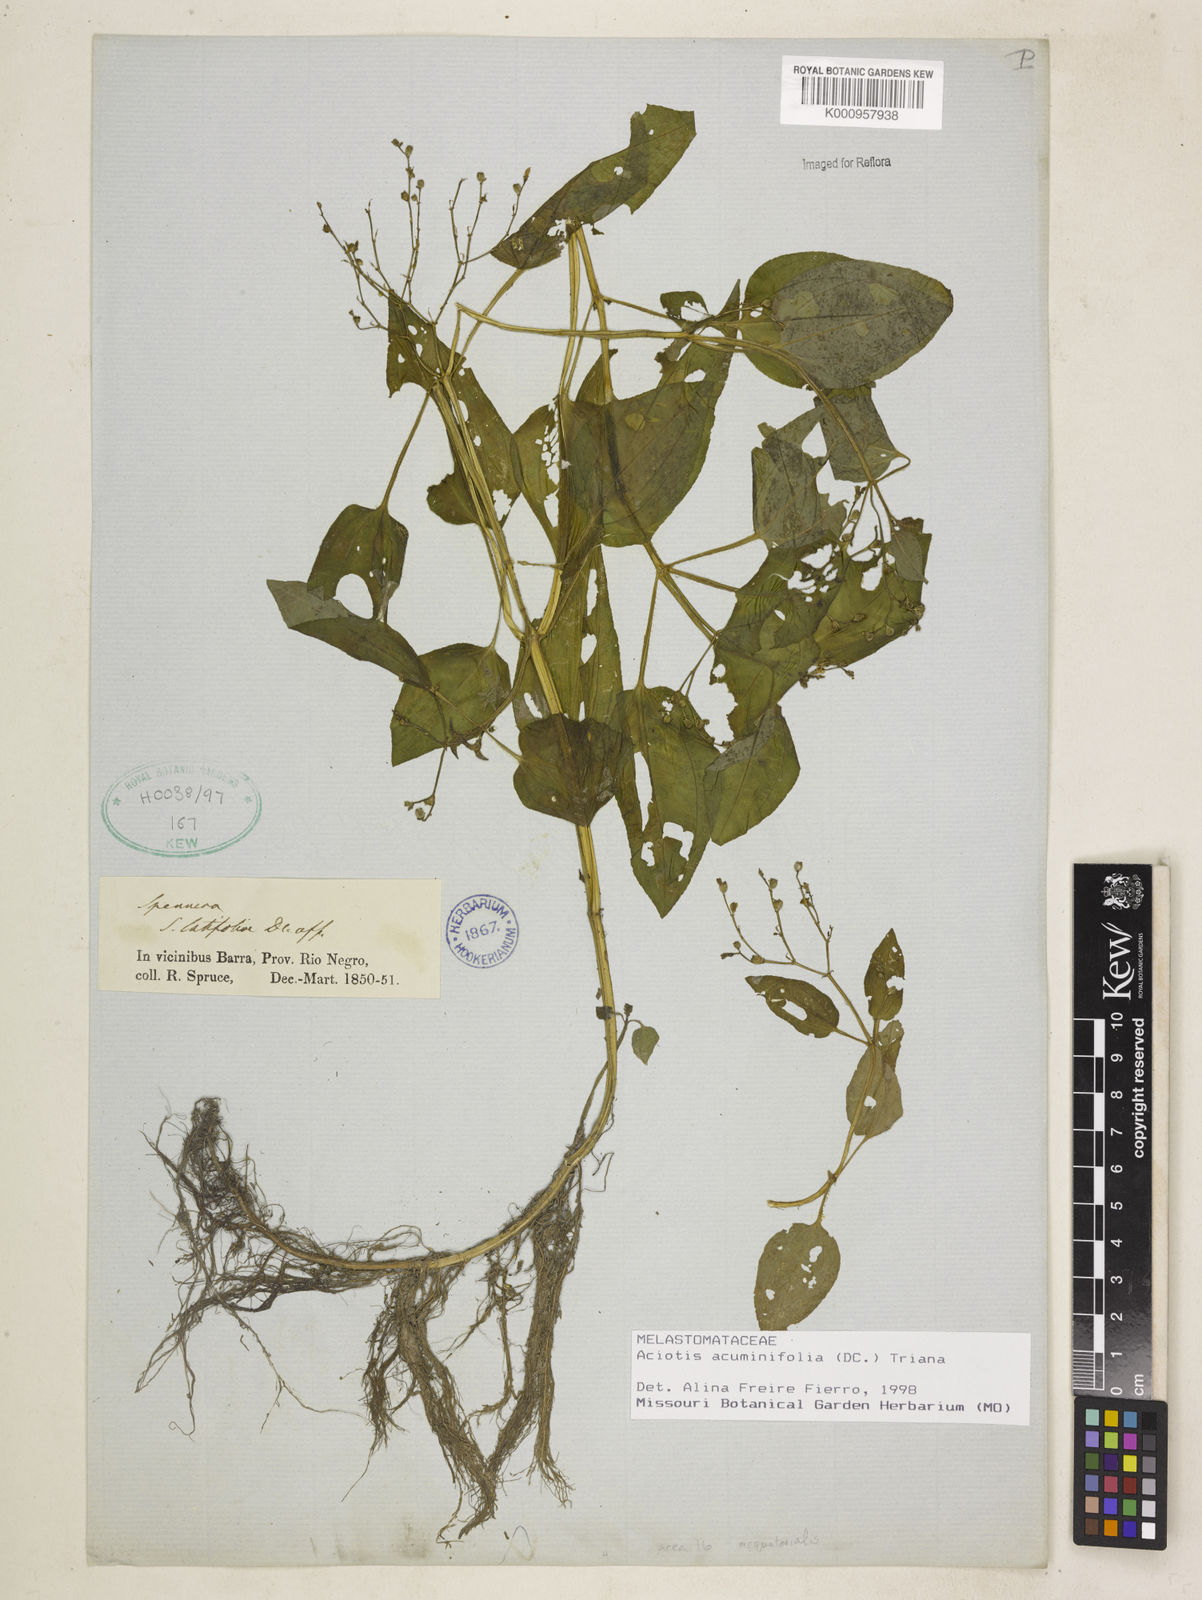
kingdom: Plantae
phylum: Tracheophyta
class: Magnoliopsida
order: Myrtales
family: Melastomataceae
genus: Aciotis
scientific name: Aciotis acuminifolia
